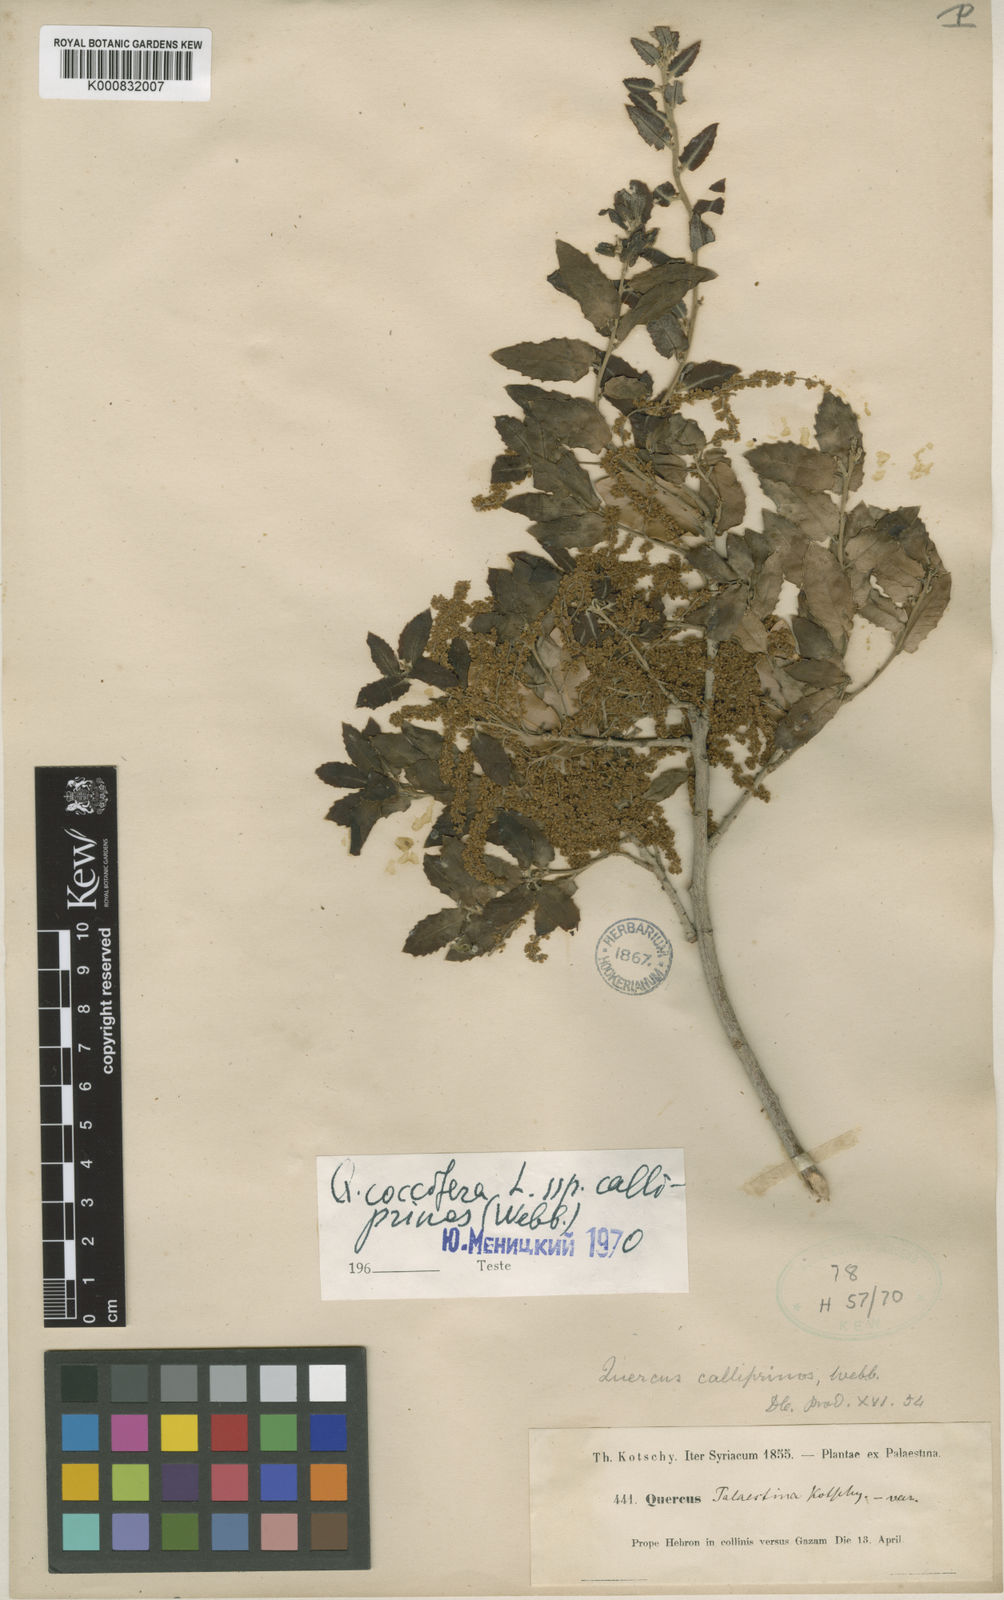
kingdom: Plantae
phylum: Tracheophyta
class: Magnoliopsida
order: Fagales
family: Fagaceae
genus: Quercus
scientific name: Quercus coccifera
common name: Kermes oak
